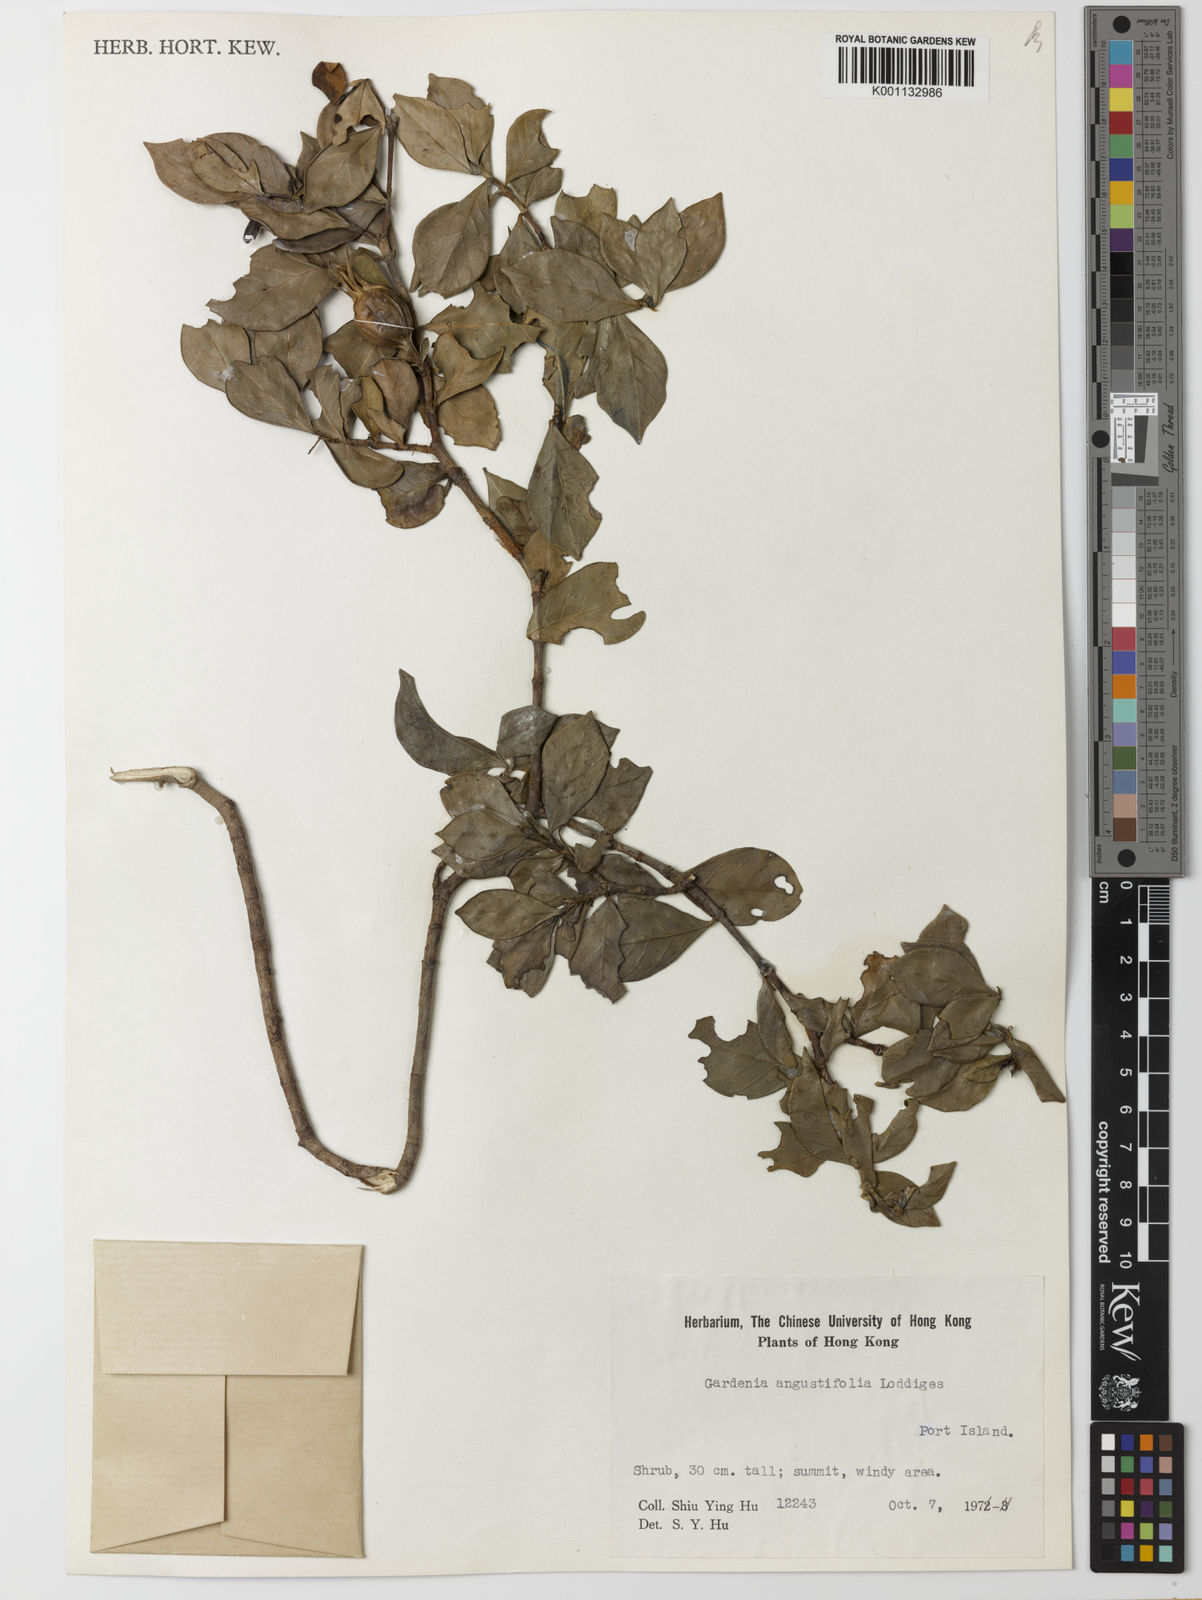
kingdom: Plantae
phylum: Tracheophyta
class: Magnoliopsida
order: Gentianales
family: Rubiaceae
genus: Gardenia
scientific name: Gardenia jasminoides
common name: Cape-jasmine
